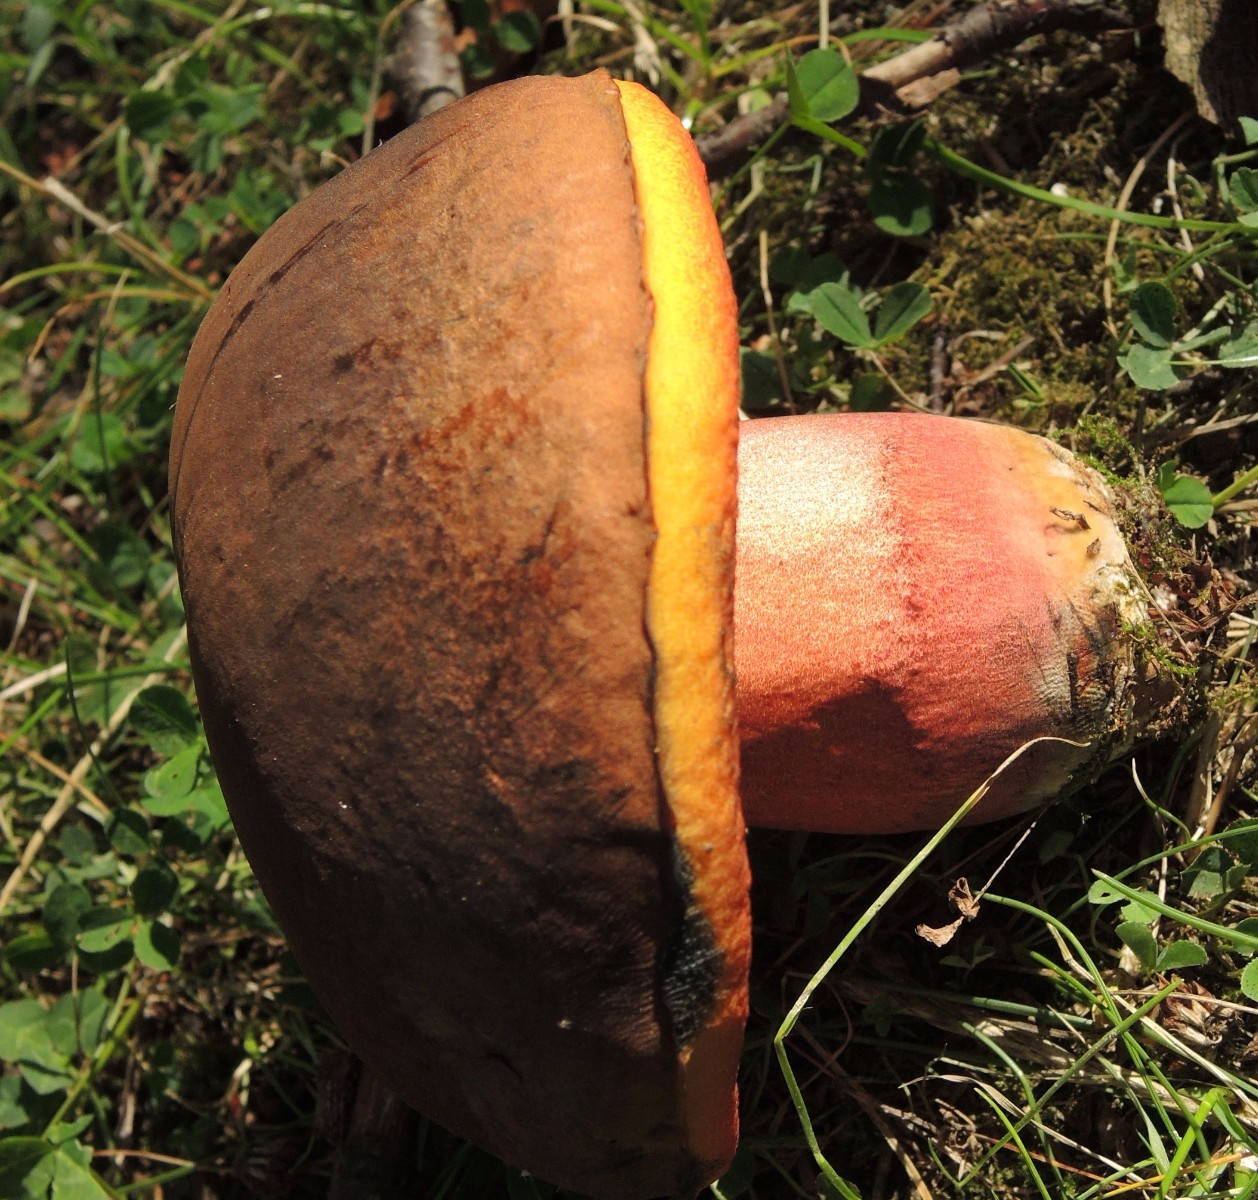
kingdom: Fungi
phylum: Basidiomycota
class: Agaricomycetes
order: Boletales
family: Boletaceae
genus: Neoboletus
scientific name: Neoboletus xanthopus
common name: finprikket indigorørhat
